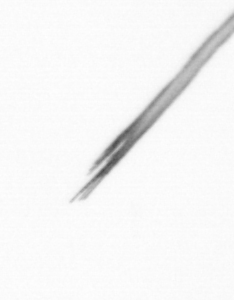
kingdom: Bacteria
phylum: Cyanobacteria
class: Cyanobacteriia
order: Cyanobacteriales
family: Microcoleaceae
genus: Trichodesmium
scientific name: Trichodesmium
